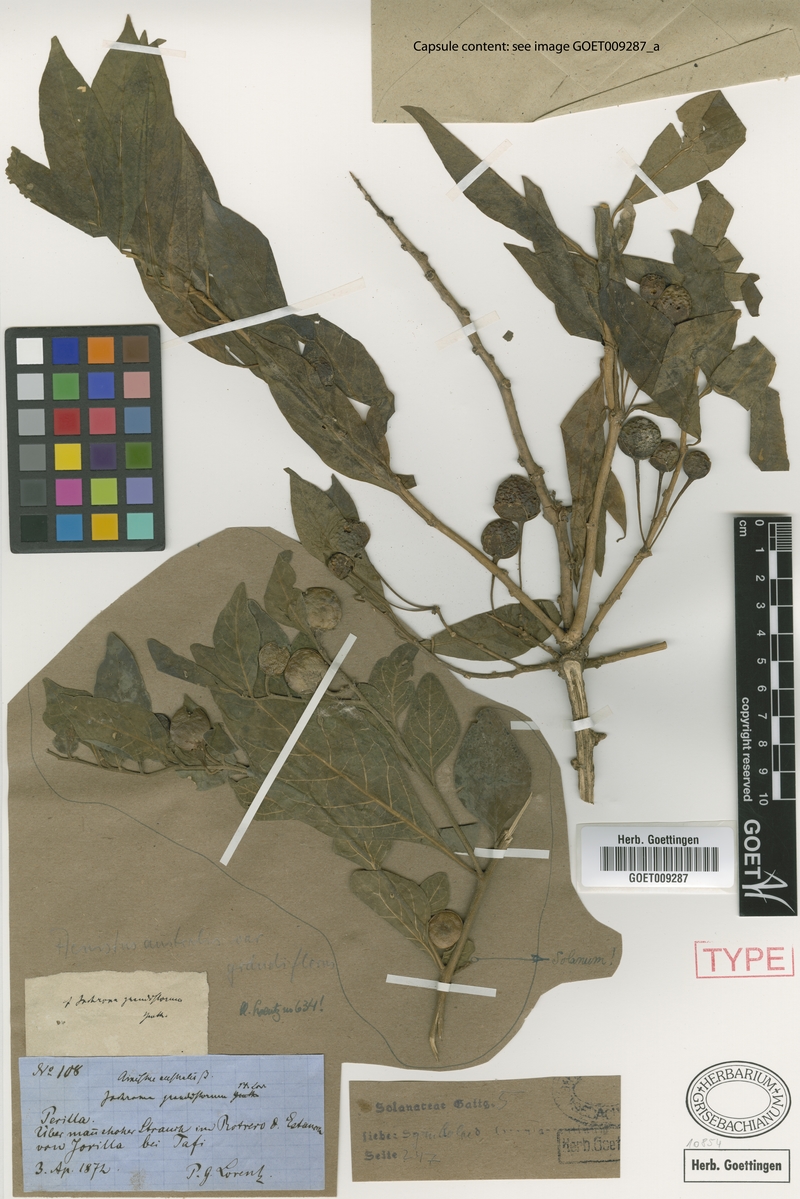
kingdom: Plantae
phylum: Tracheophyta
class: Magnoliopsida
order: Solanales
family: Solanaceae
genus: Eriolarynx
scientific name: Eriolarynx australis
